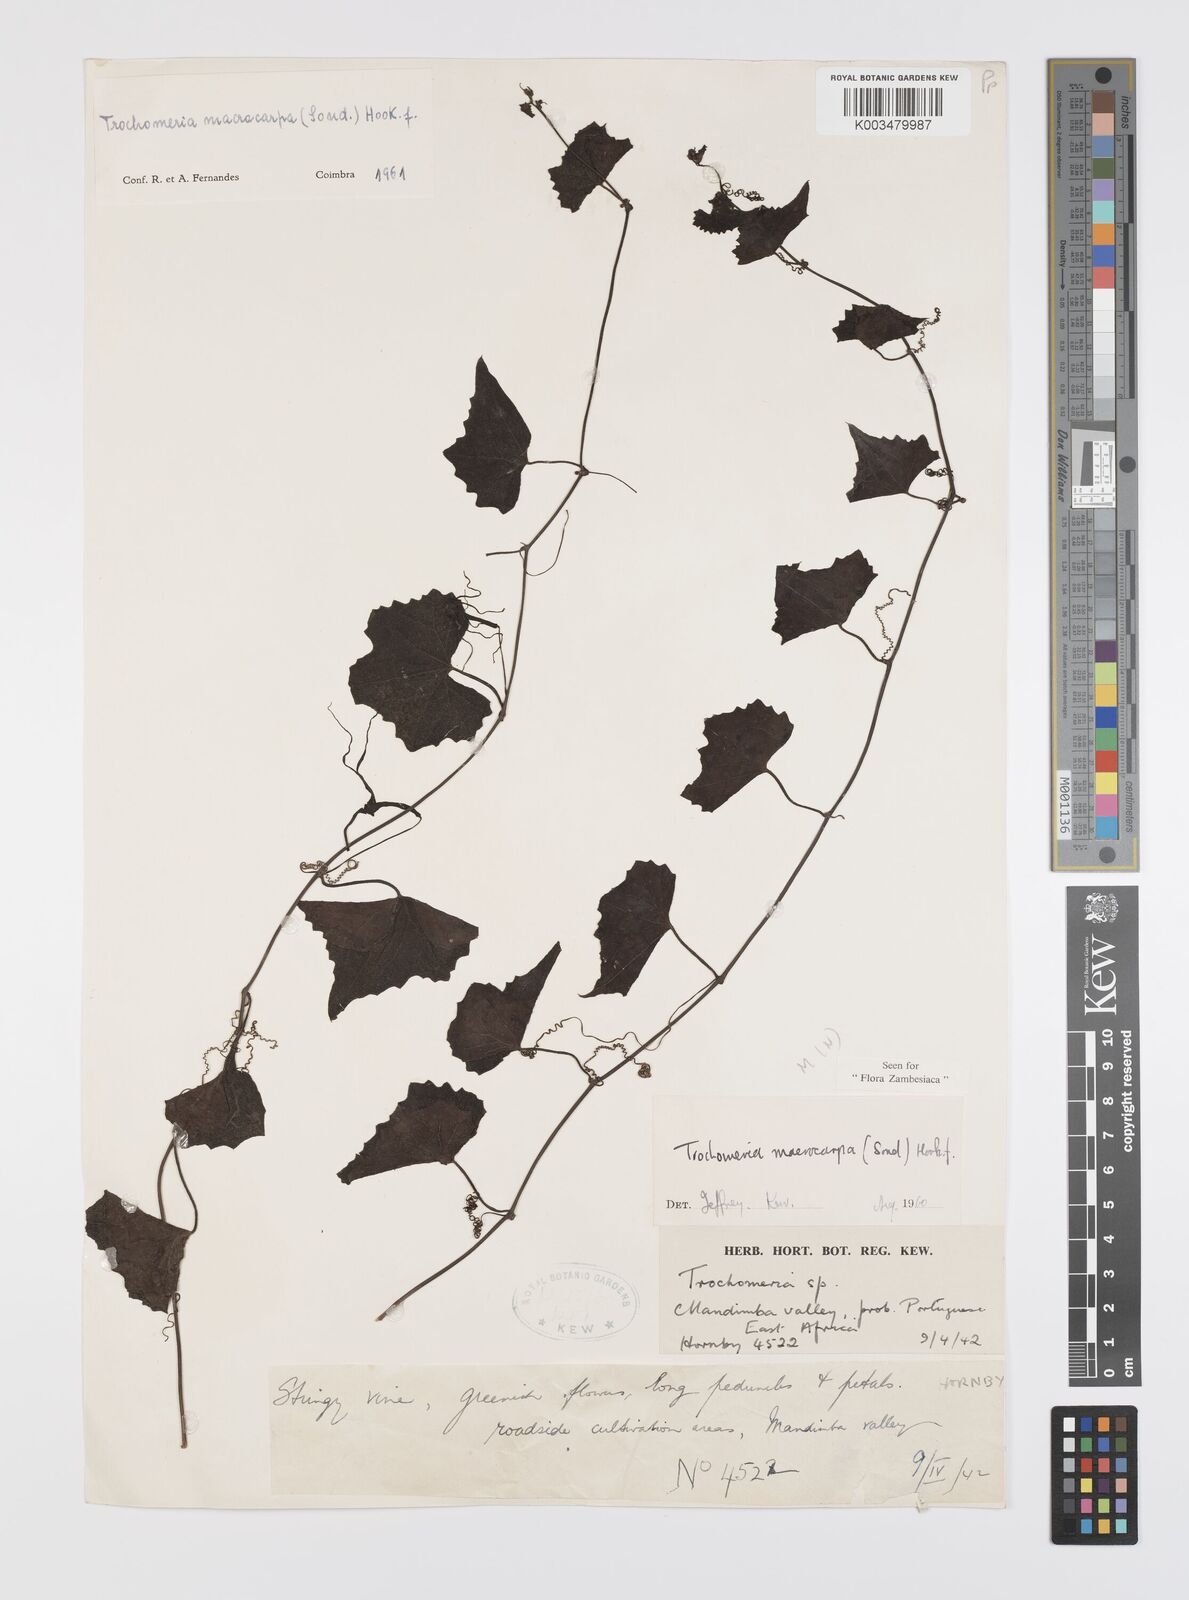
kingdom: Plantae
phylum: Tracheophyta
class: Magnoliopsida
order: Cucurbitales
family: Cucurbitaceae
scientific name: Cucurbitaceae
